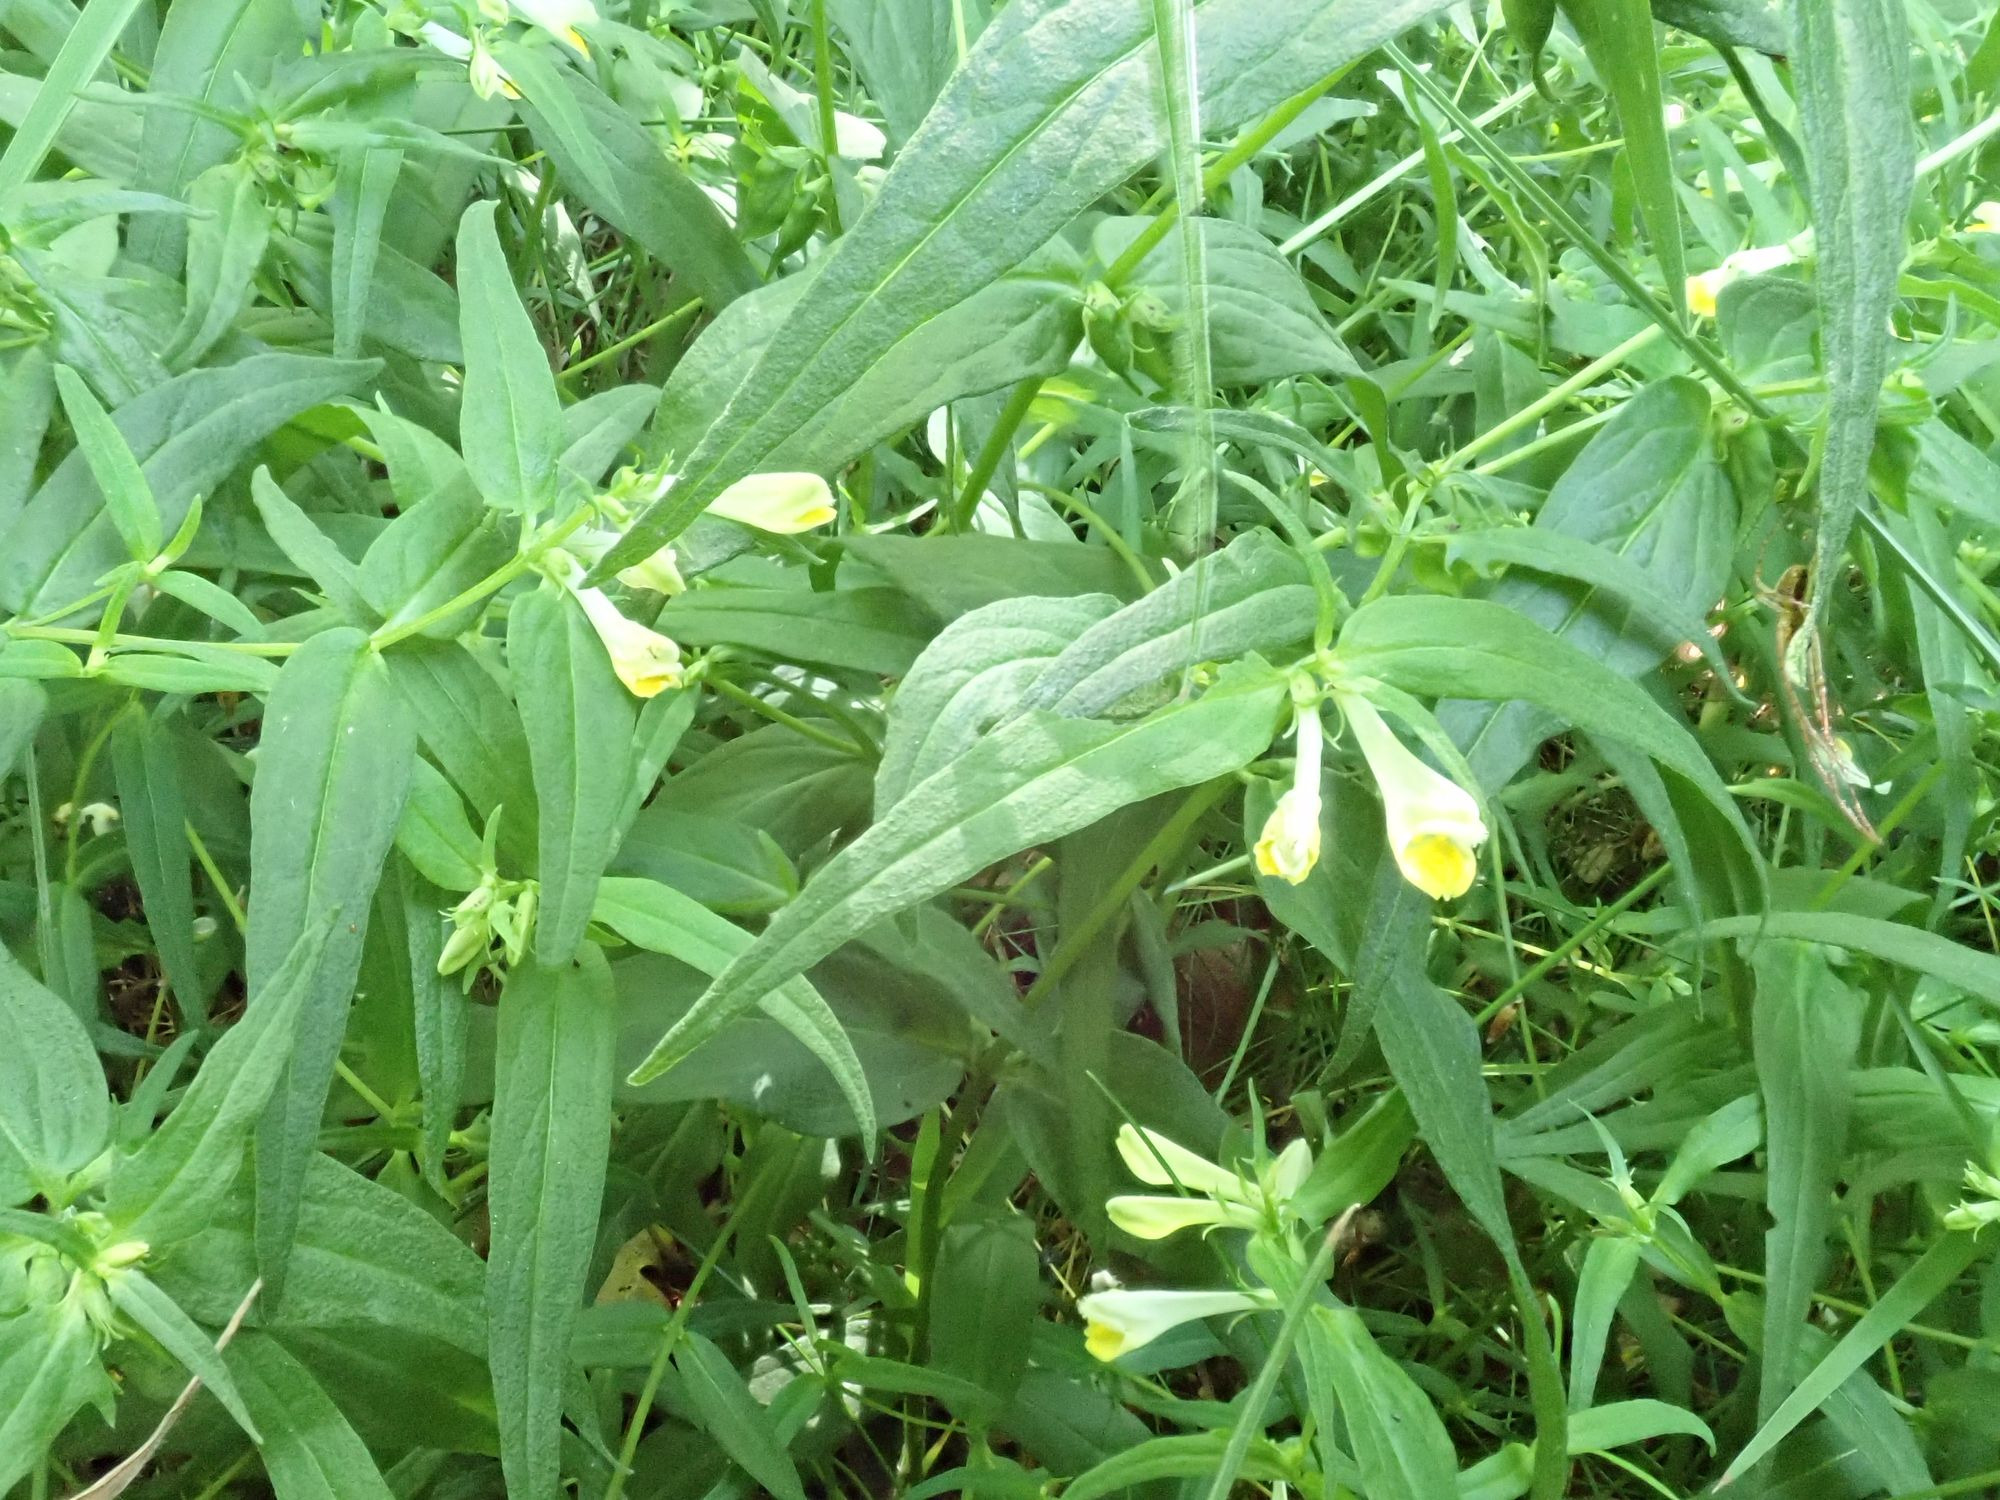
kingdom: Plantae
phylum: Tracheophyta
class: Magnoliopsida
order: Lamiales
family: Orobanchaceae
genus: Melampyrum
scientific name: Melampyrum pratense
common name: Almindelig kohvede
